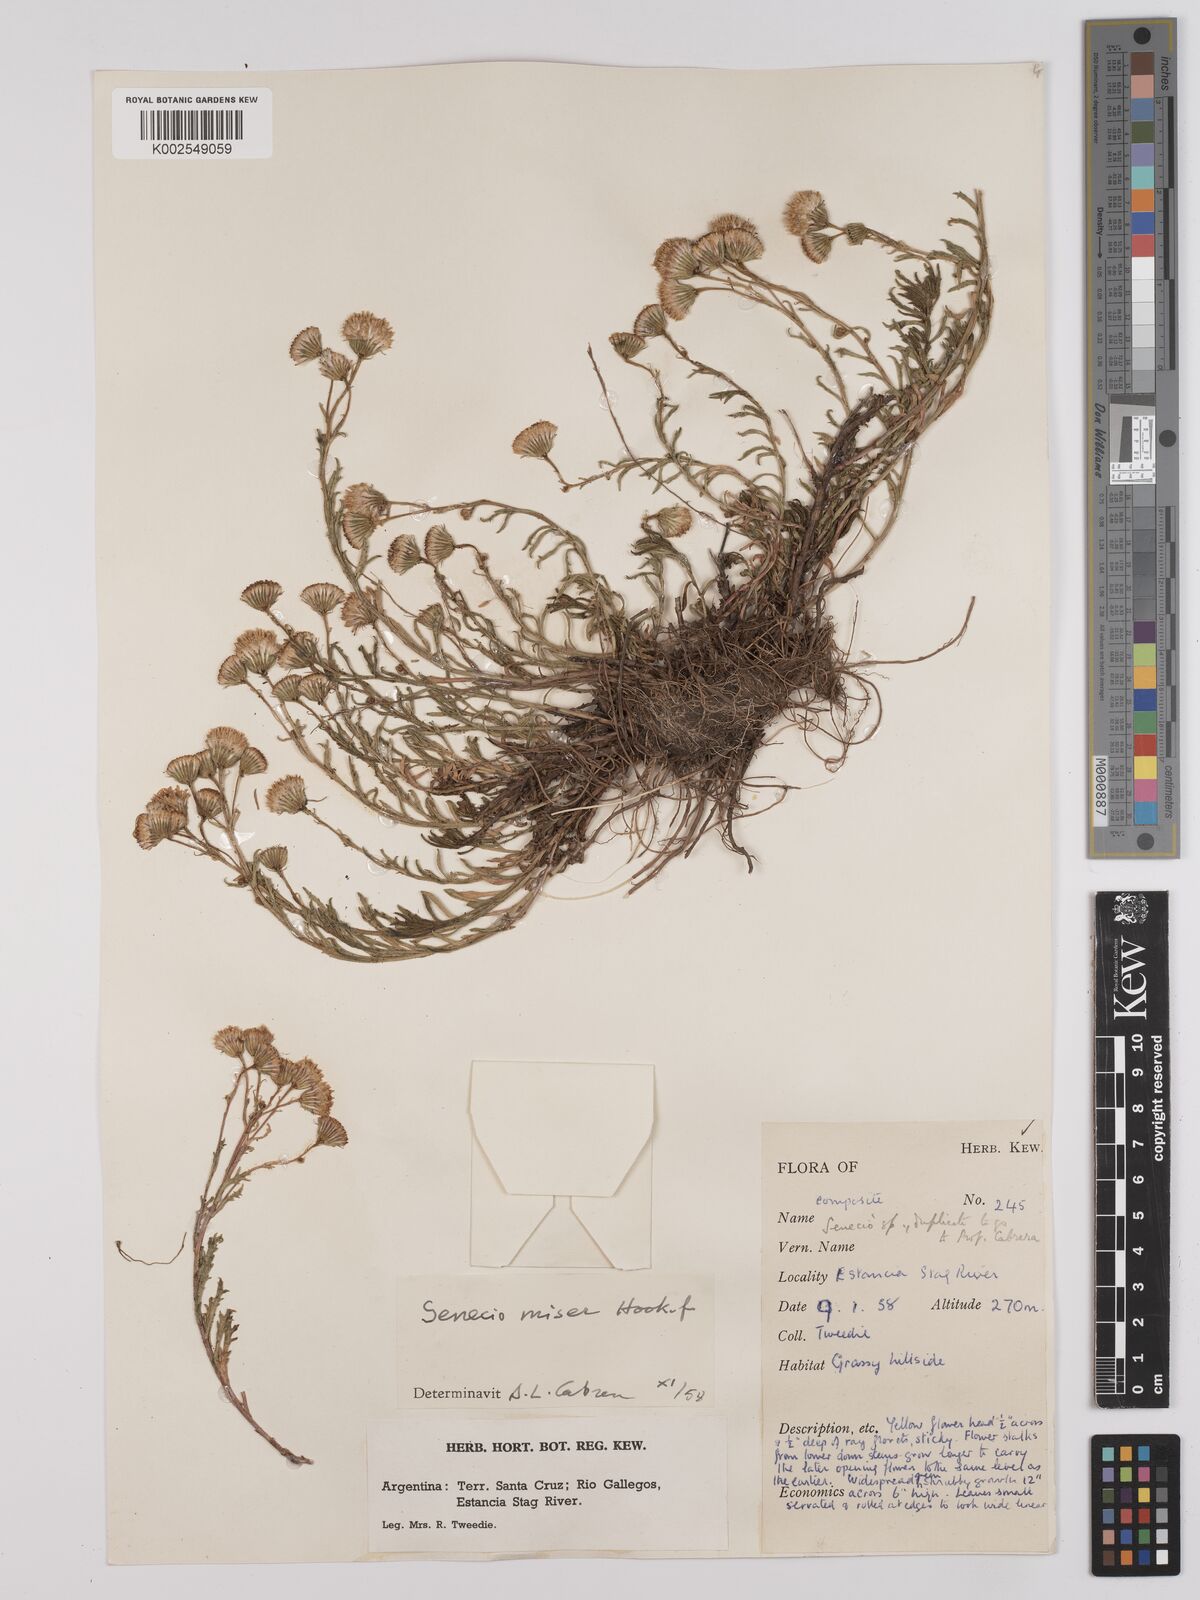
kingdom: Plantae
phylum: Tracheophyta
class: Magnoliopsida
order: Asterales
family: Asteraceae
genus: Senecio
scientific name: Senecio miser
